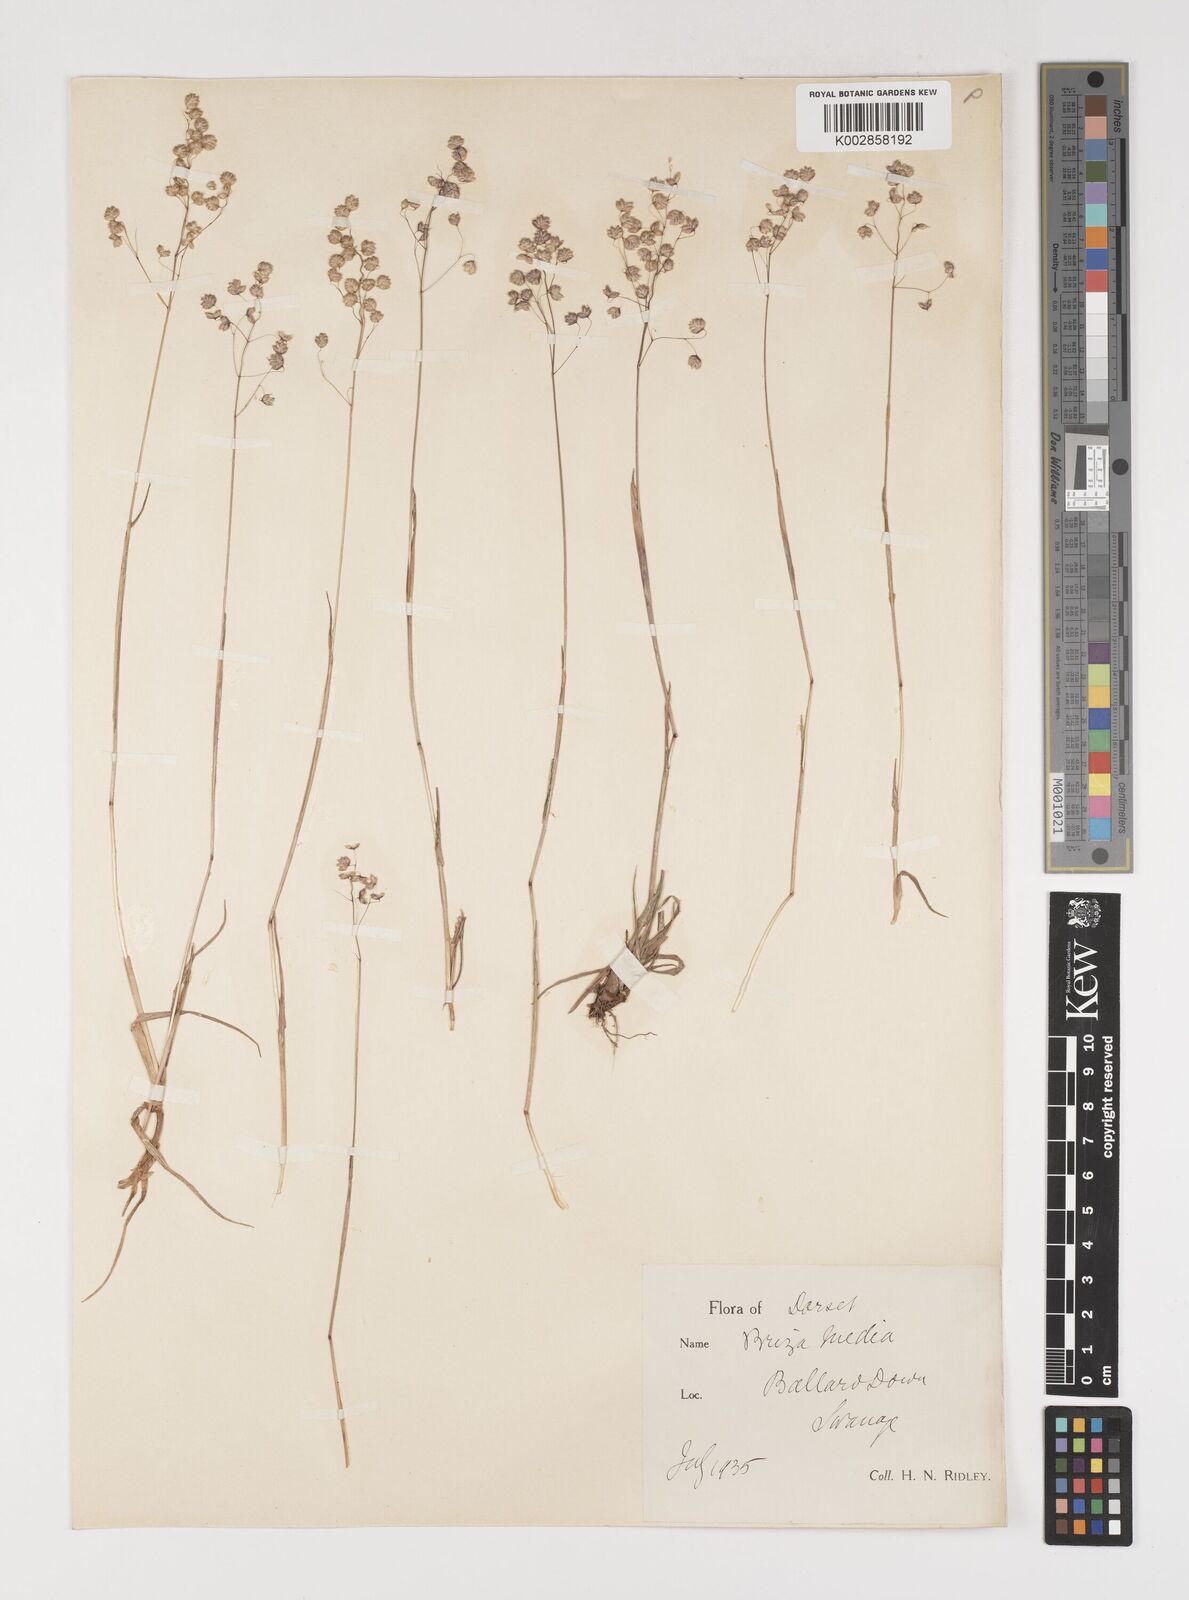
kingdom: Plantae
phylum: Tracheophyta
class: Liliopsida
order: Poales
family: Poaceae
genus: Briza
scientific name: Briza media
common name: Quaking grass
